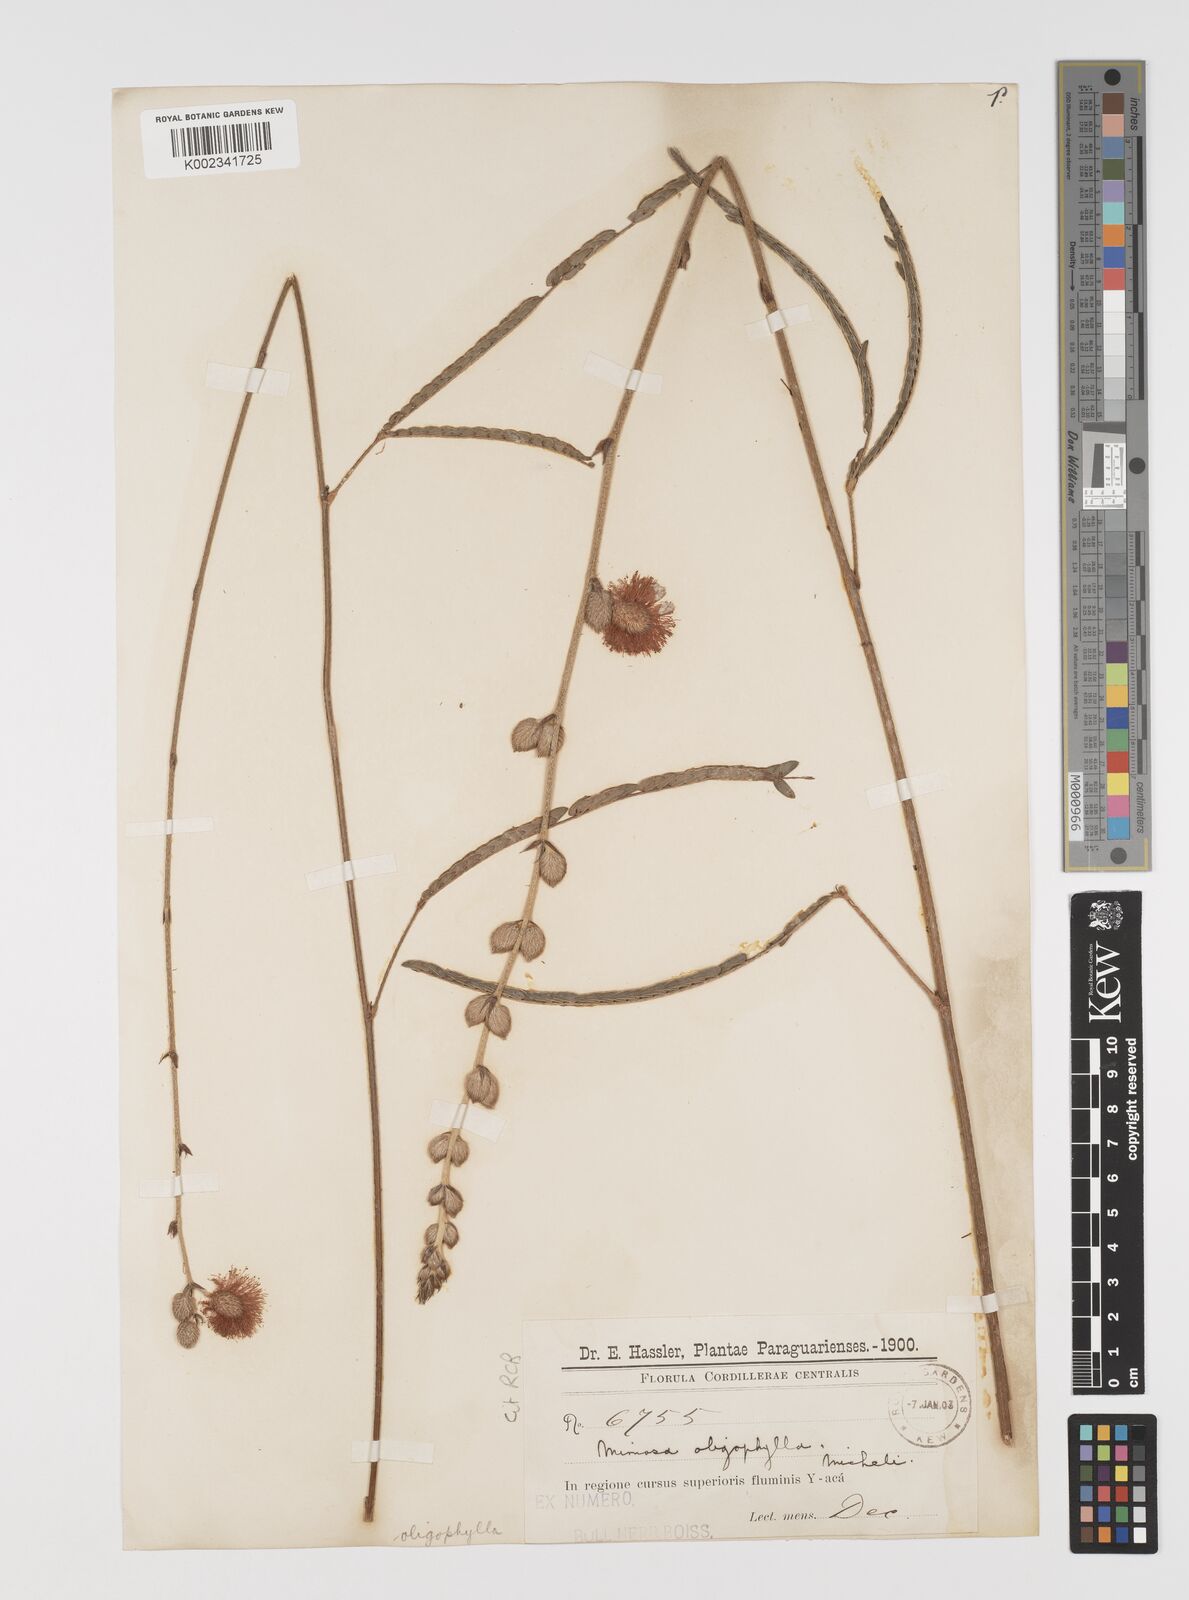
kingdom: Plantae
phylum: Tracheophyta
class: Magnoliopsida
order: Fabales
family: Fabaceae
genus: Mimosa
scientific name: Mimosa oligophylla
